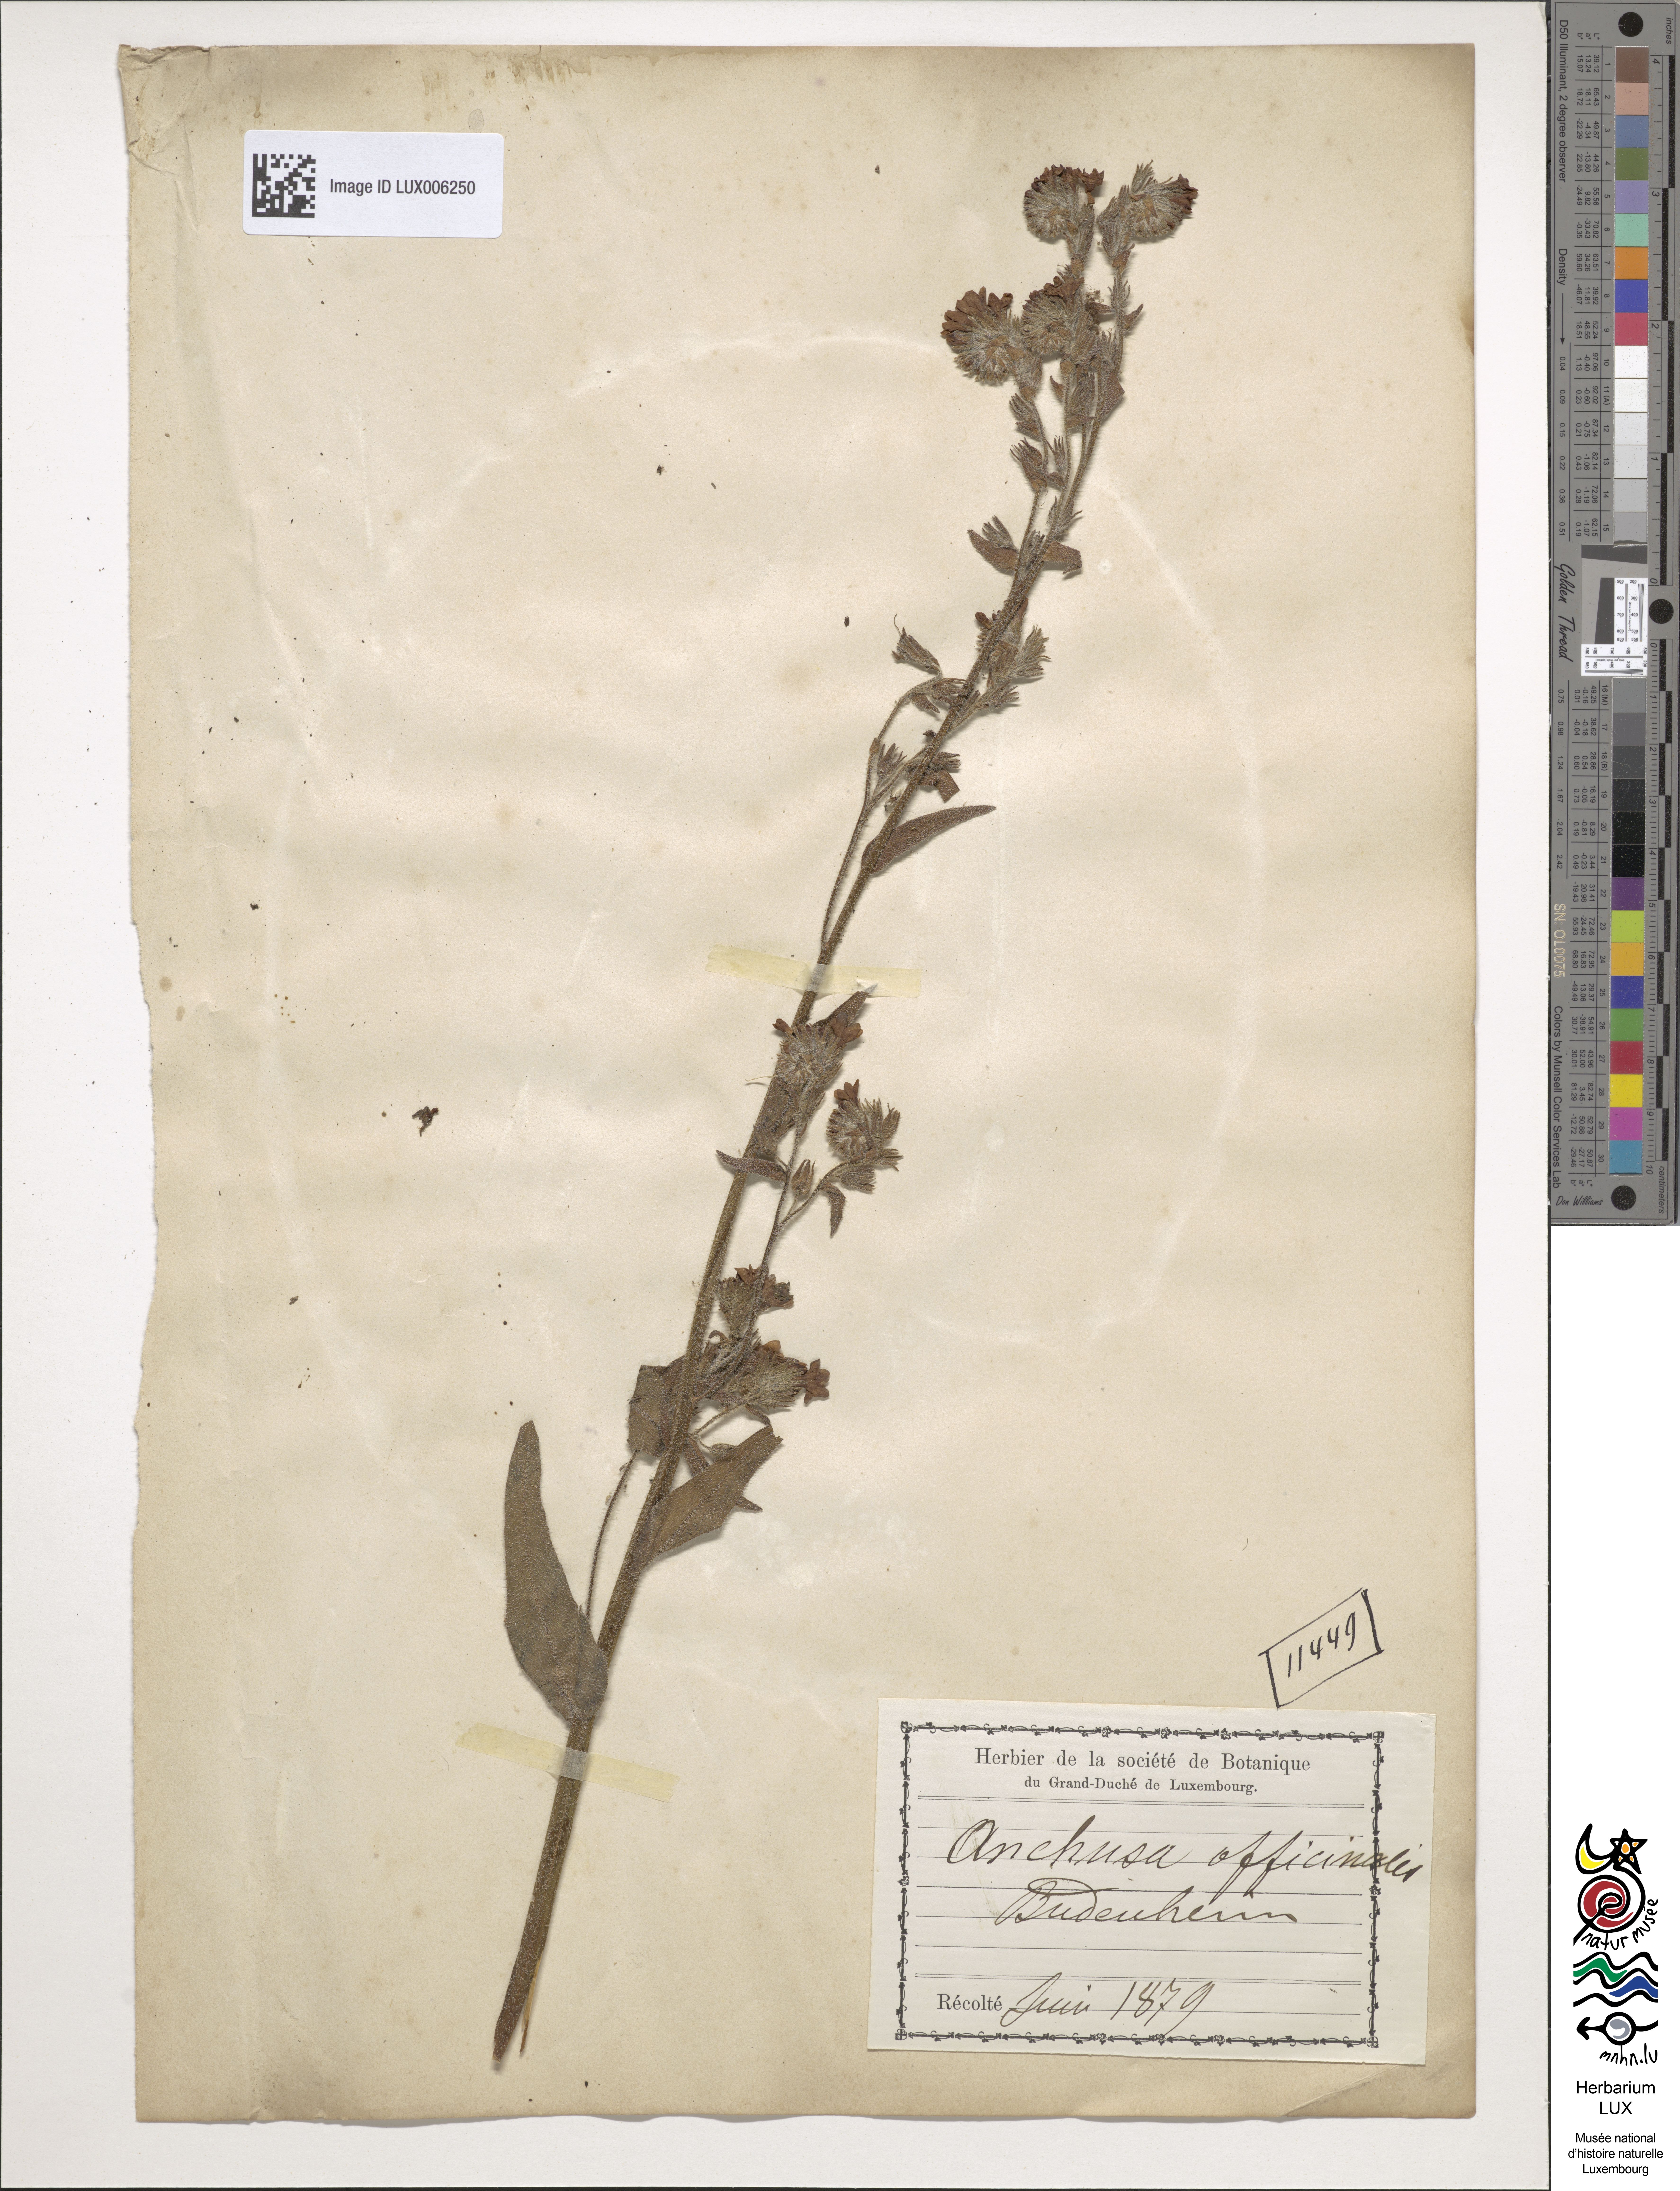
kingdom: Plantae
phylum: Tracheophyta
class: Magnoliopsida
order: Boraginales
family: Boraginaceae
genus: Anchusa
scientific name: Anchusa officinalis
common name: Alkanet
